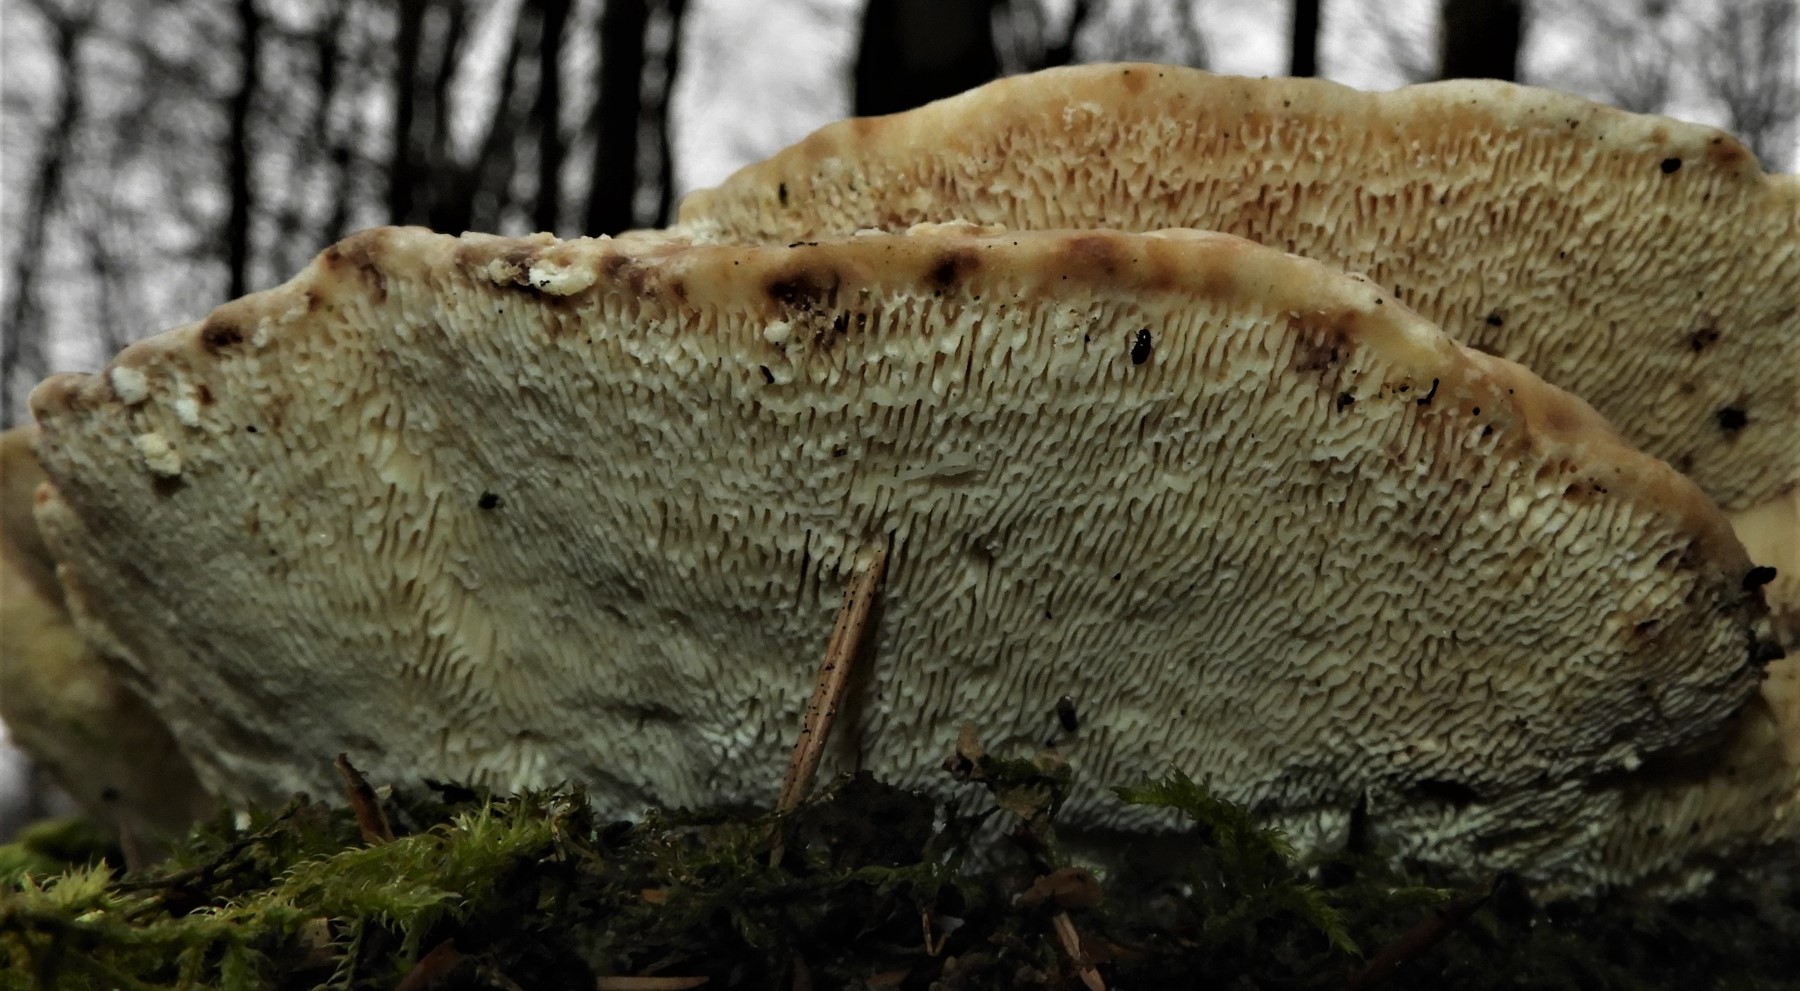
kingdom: Fungi
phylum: Basidiomycota
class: Agaricomycetes
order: Polyporales
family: Polyporaceae
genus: Trametes
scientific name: Trametes gibbosa
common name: puklet læderporesvamp
